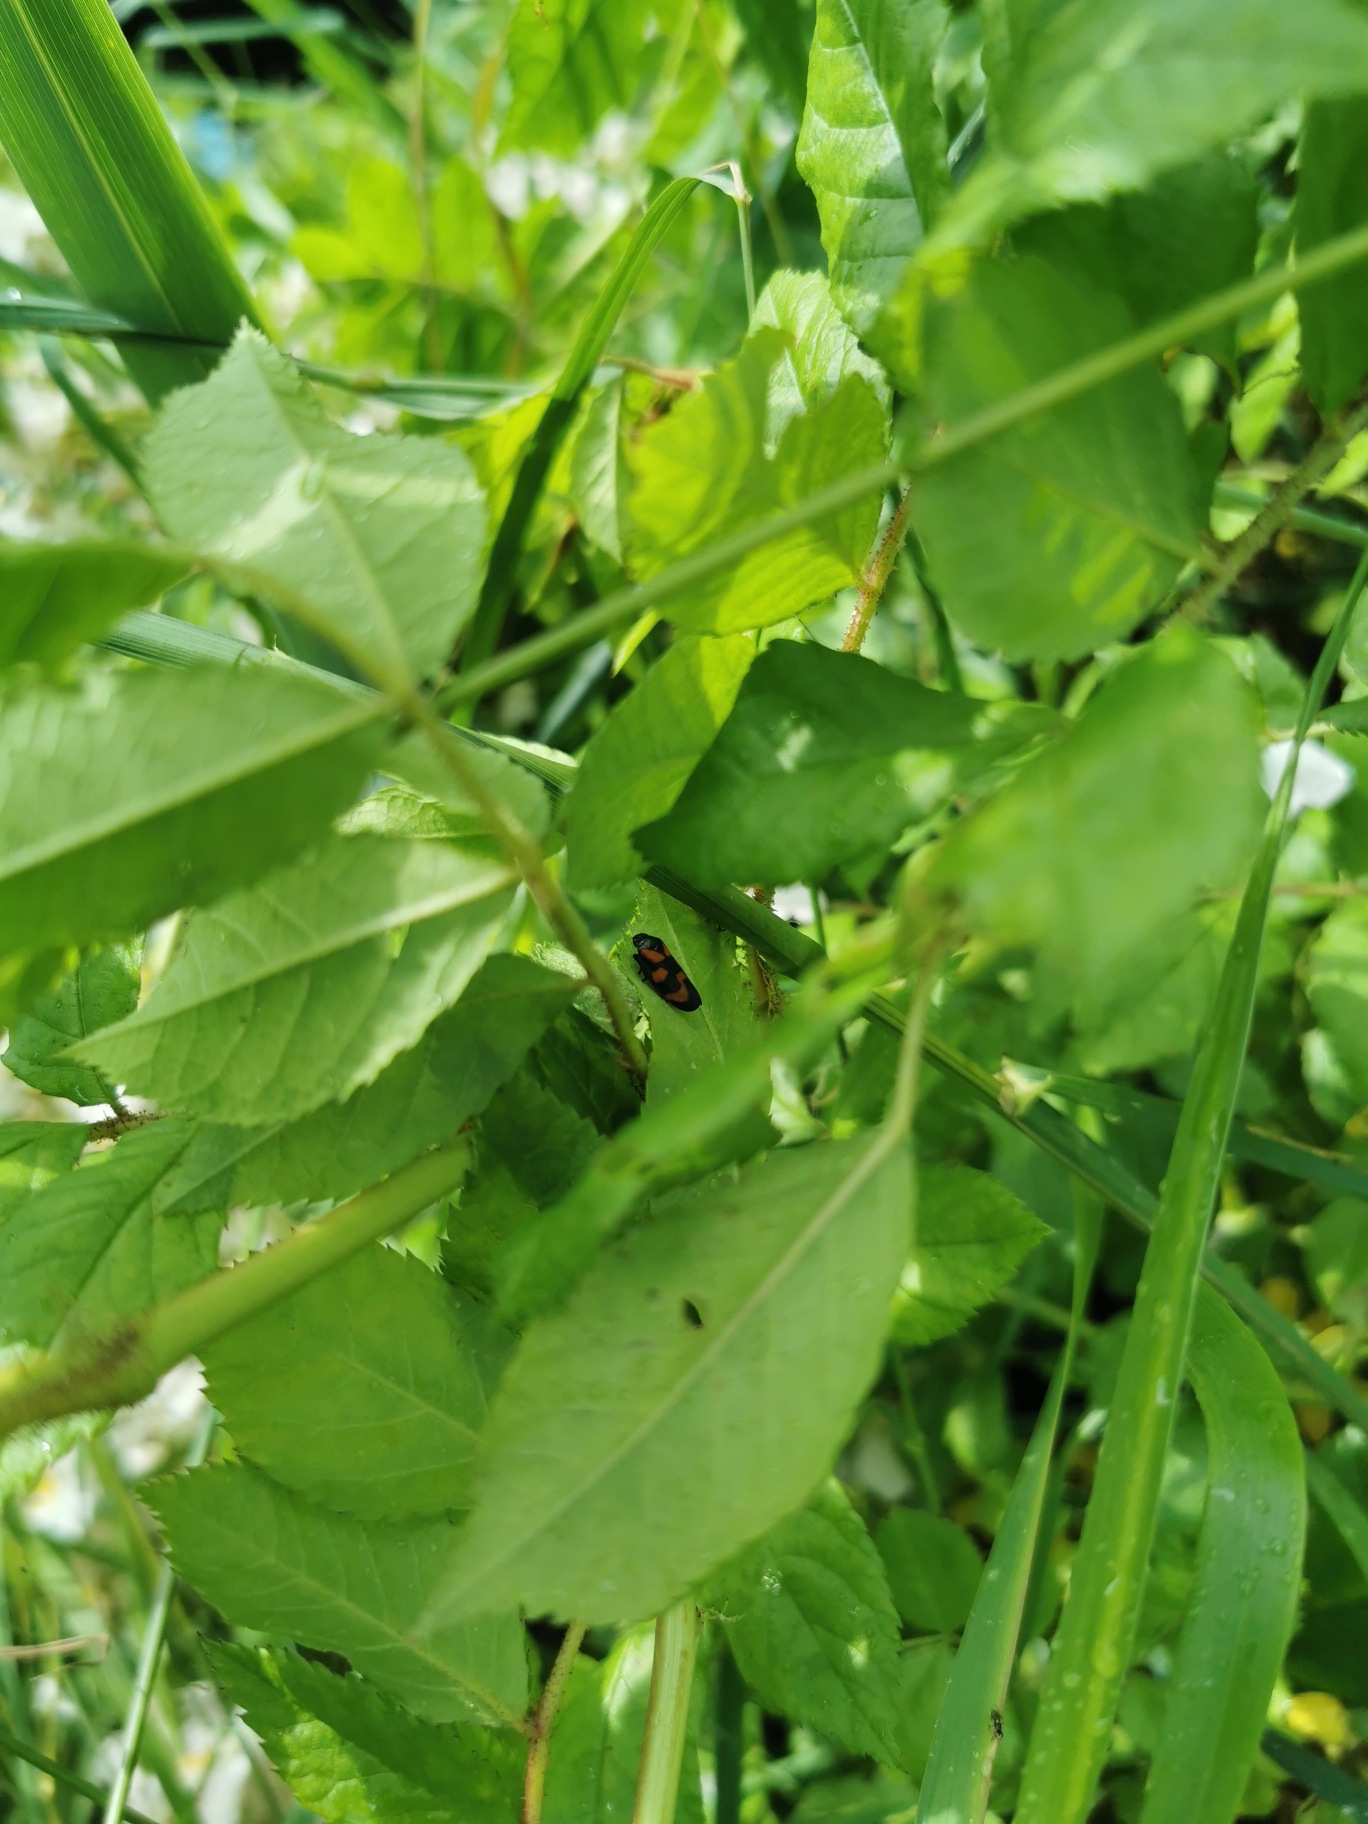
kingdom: Animalia
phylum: Arthropoda
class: Insecta
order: Hemiptera
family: Cercopidae
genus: Cercopis
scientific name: Cercopis vulnerata
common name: Blodcikade
